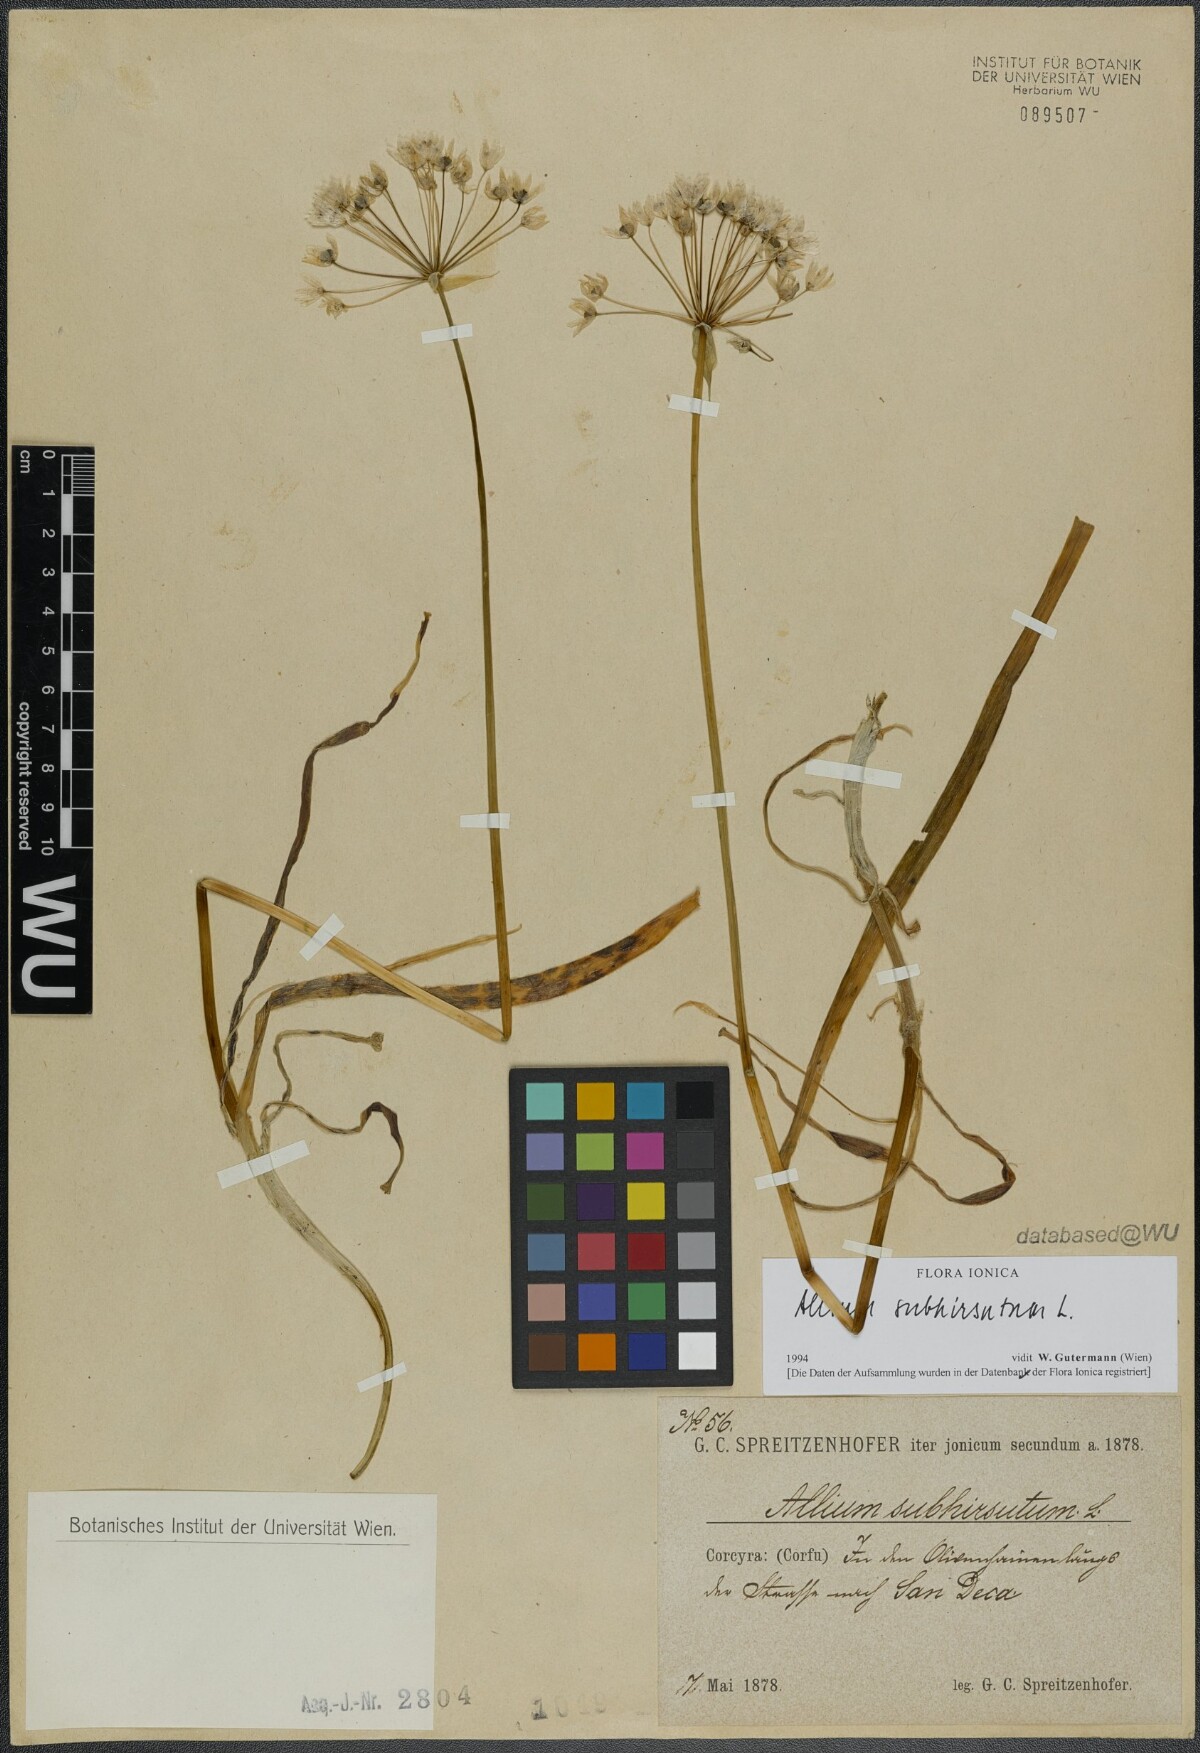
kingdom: Plantae
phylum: Tracheophyta
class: Liliopsida
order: Asparagales
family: Amaryllidaceae
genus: Allium
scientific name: Allium subhirsutum
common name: Hairy garlic
